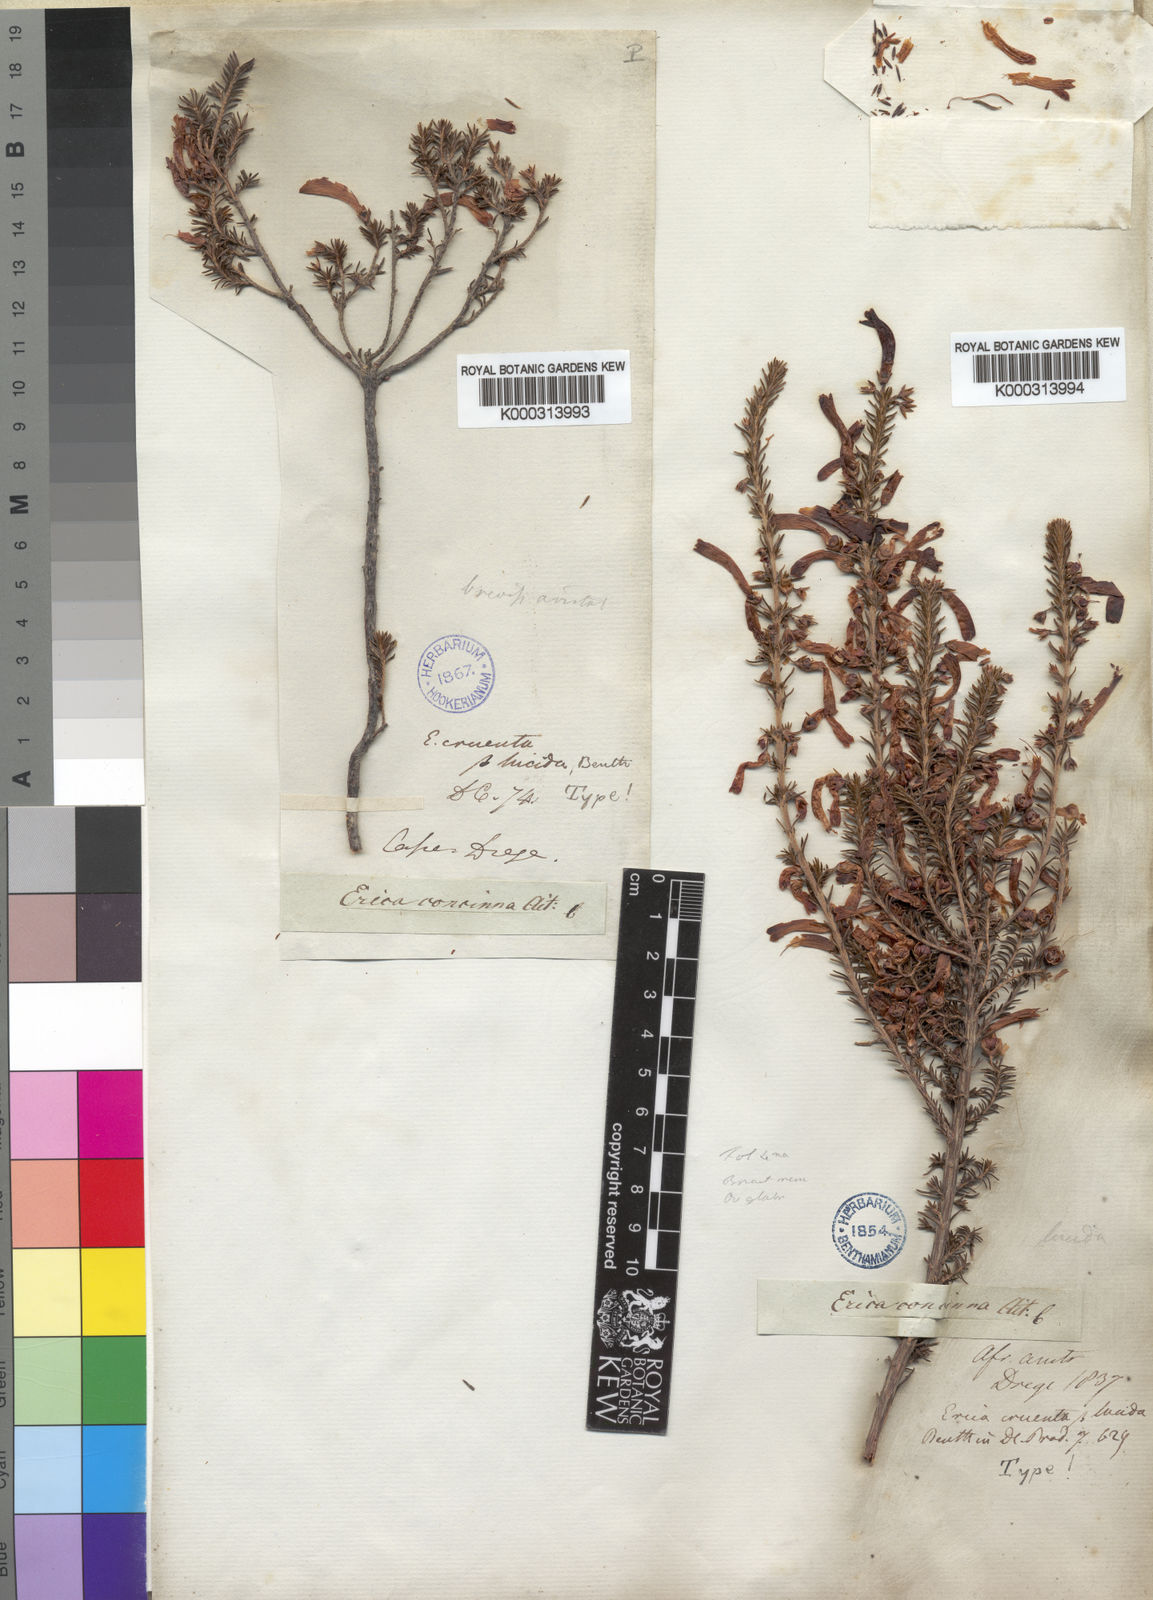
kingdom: Plantae
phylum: Tracheophyta
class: Magnoliopsida
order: Ericales
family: Ericaceae
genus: Erica
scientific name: Erica
